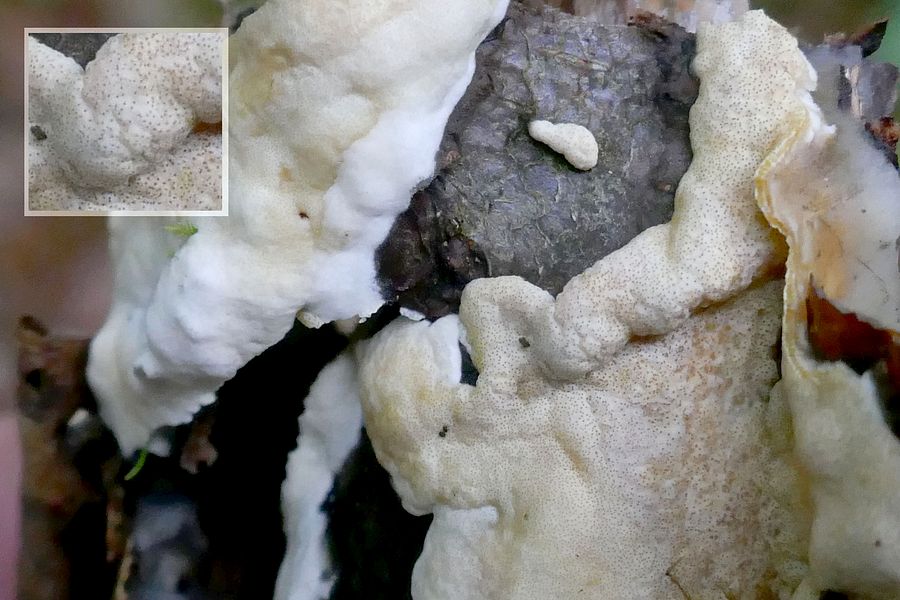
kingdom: Fungi
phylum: Ascomycota
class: Sordariomycetes
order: Hypocreales
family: Hypocreaceae
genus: Trichoderma
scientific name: Trichoderma citrinum
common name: udbredt kødkerne
